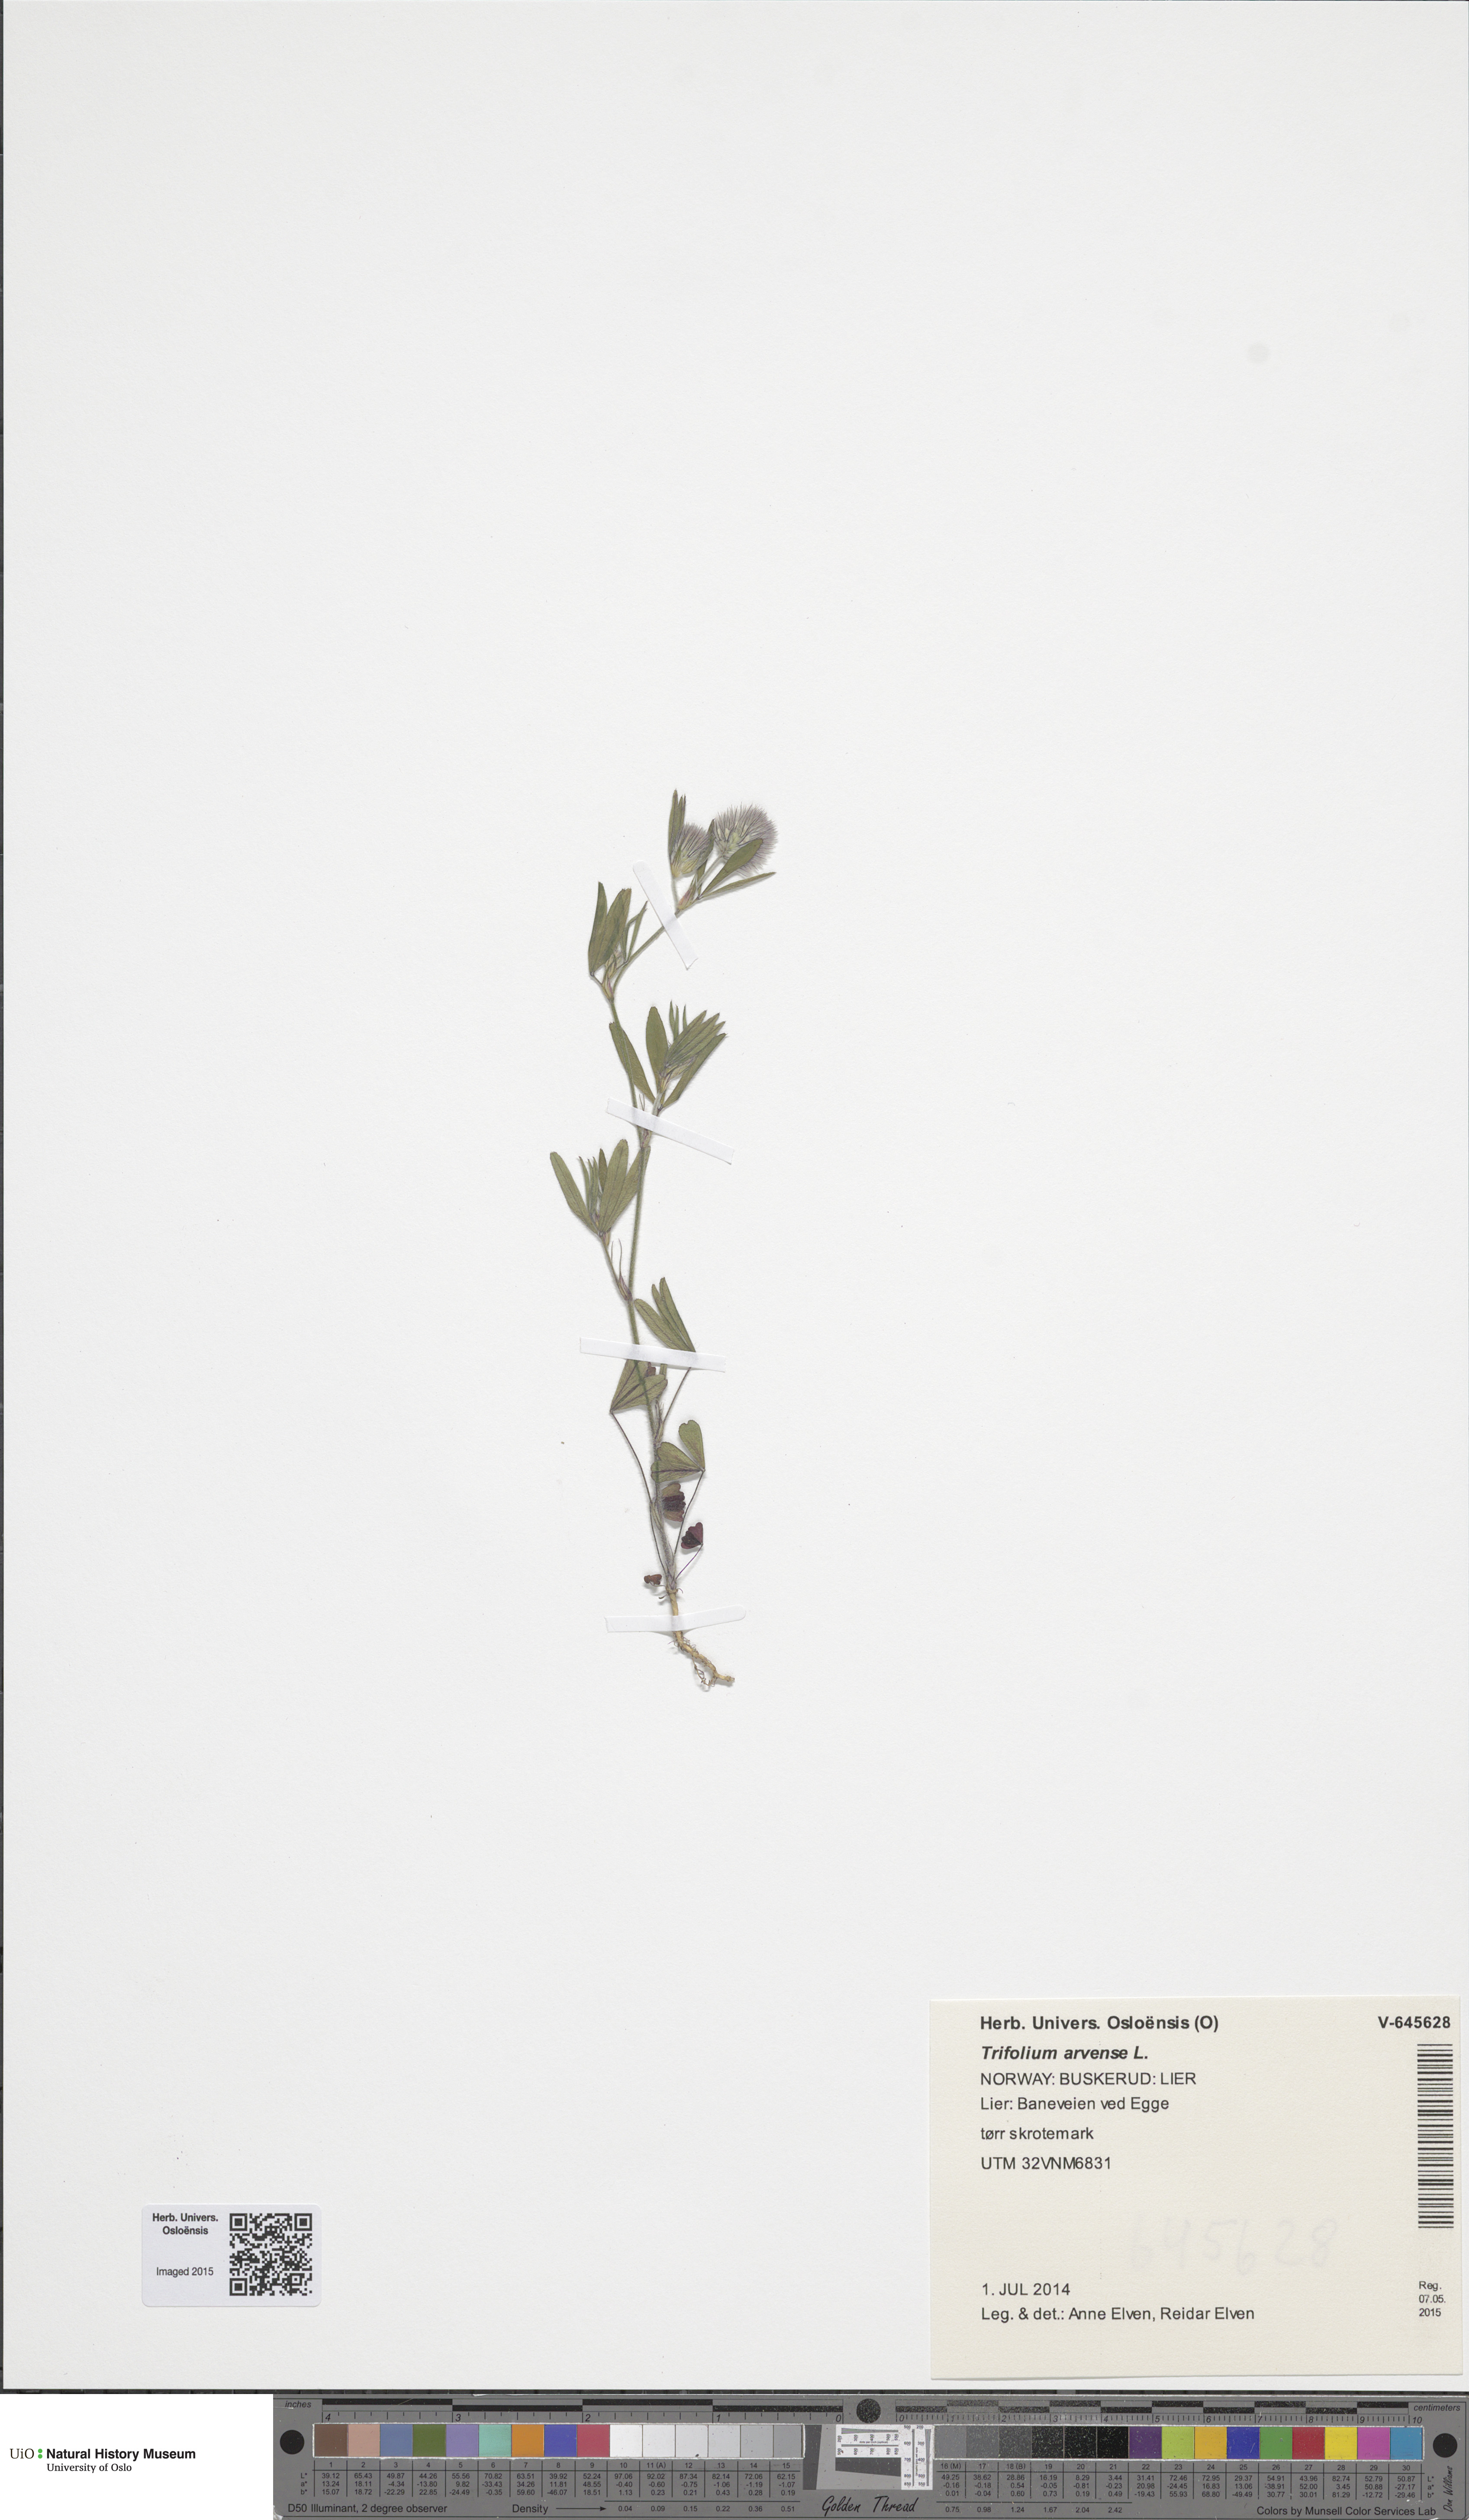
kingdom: Plantae
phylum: Tracheophyta
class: Magnoliopsida
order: Fabales
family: Fabaceae
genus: Trifolium
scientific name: Trifolium arvense
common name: Hare's-foot clover
